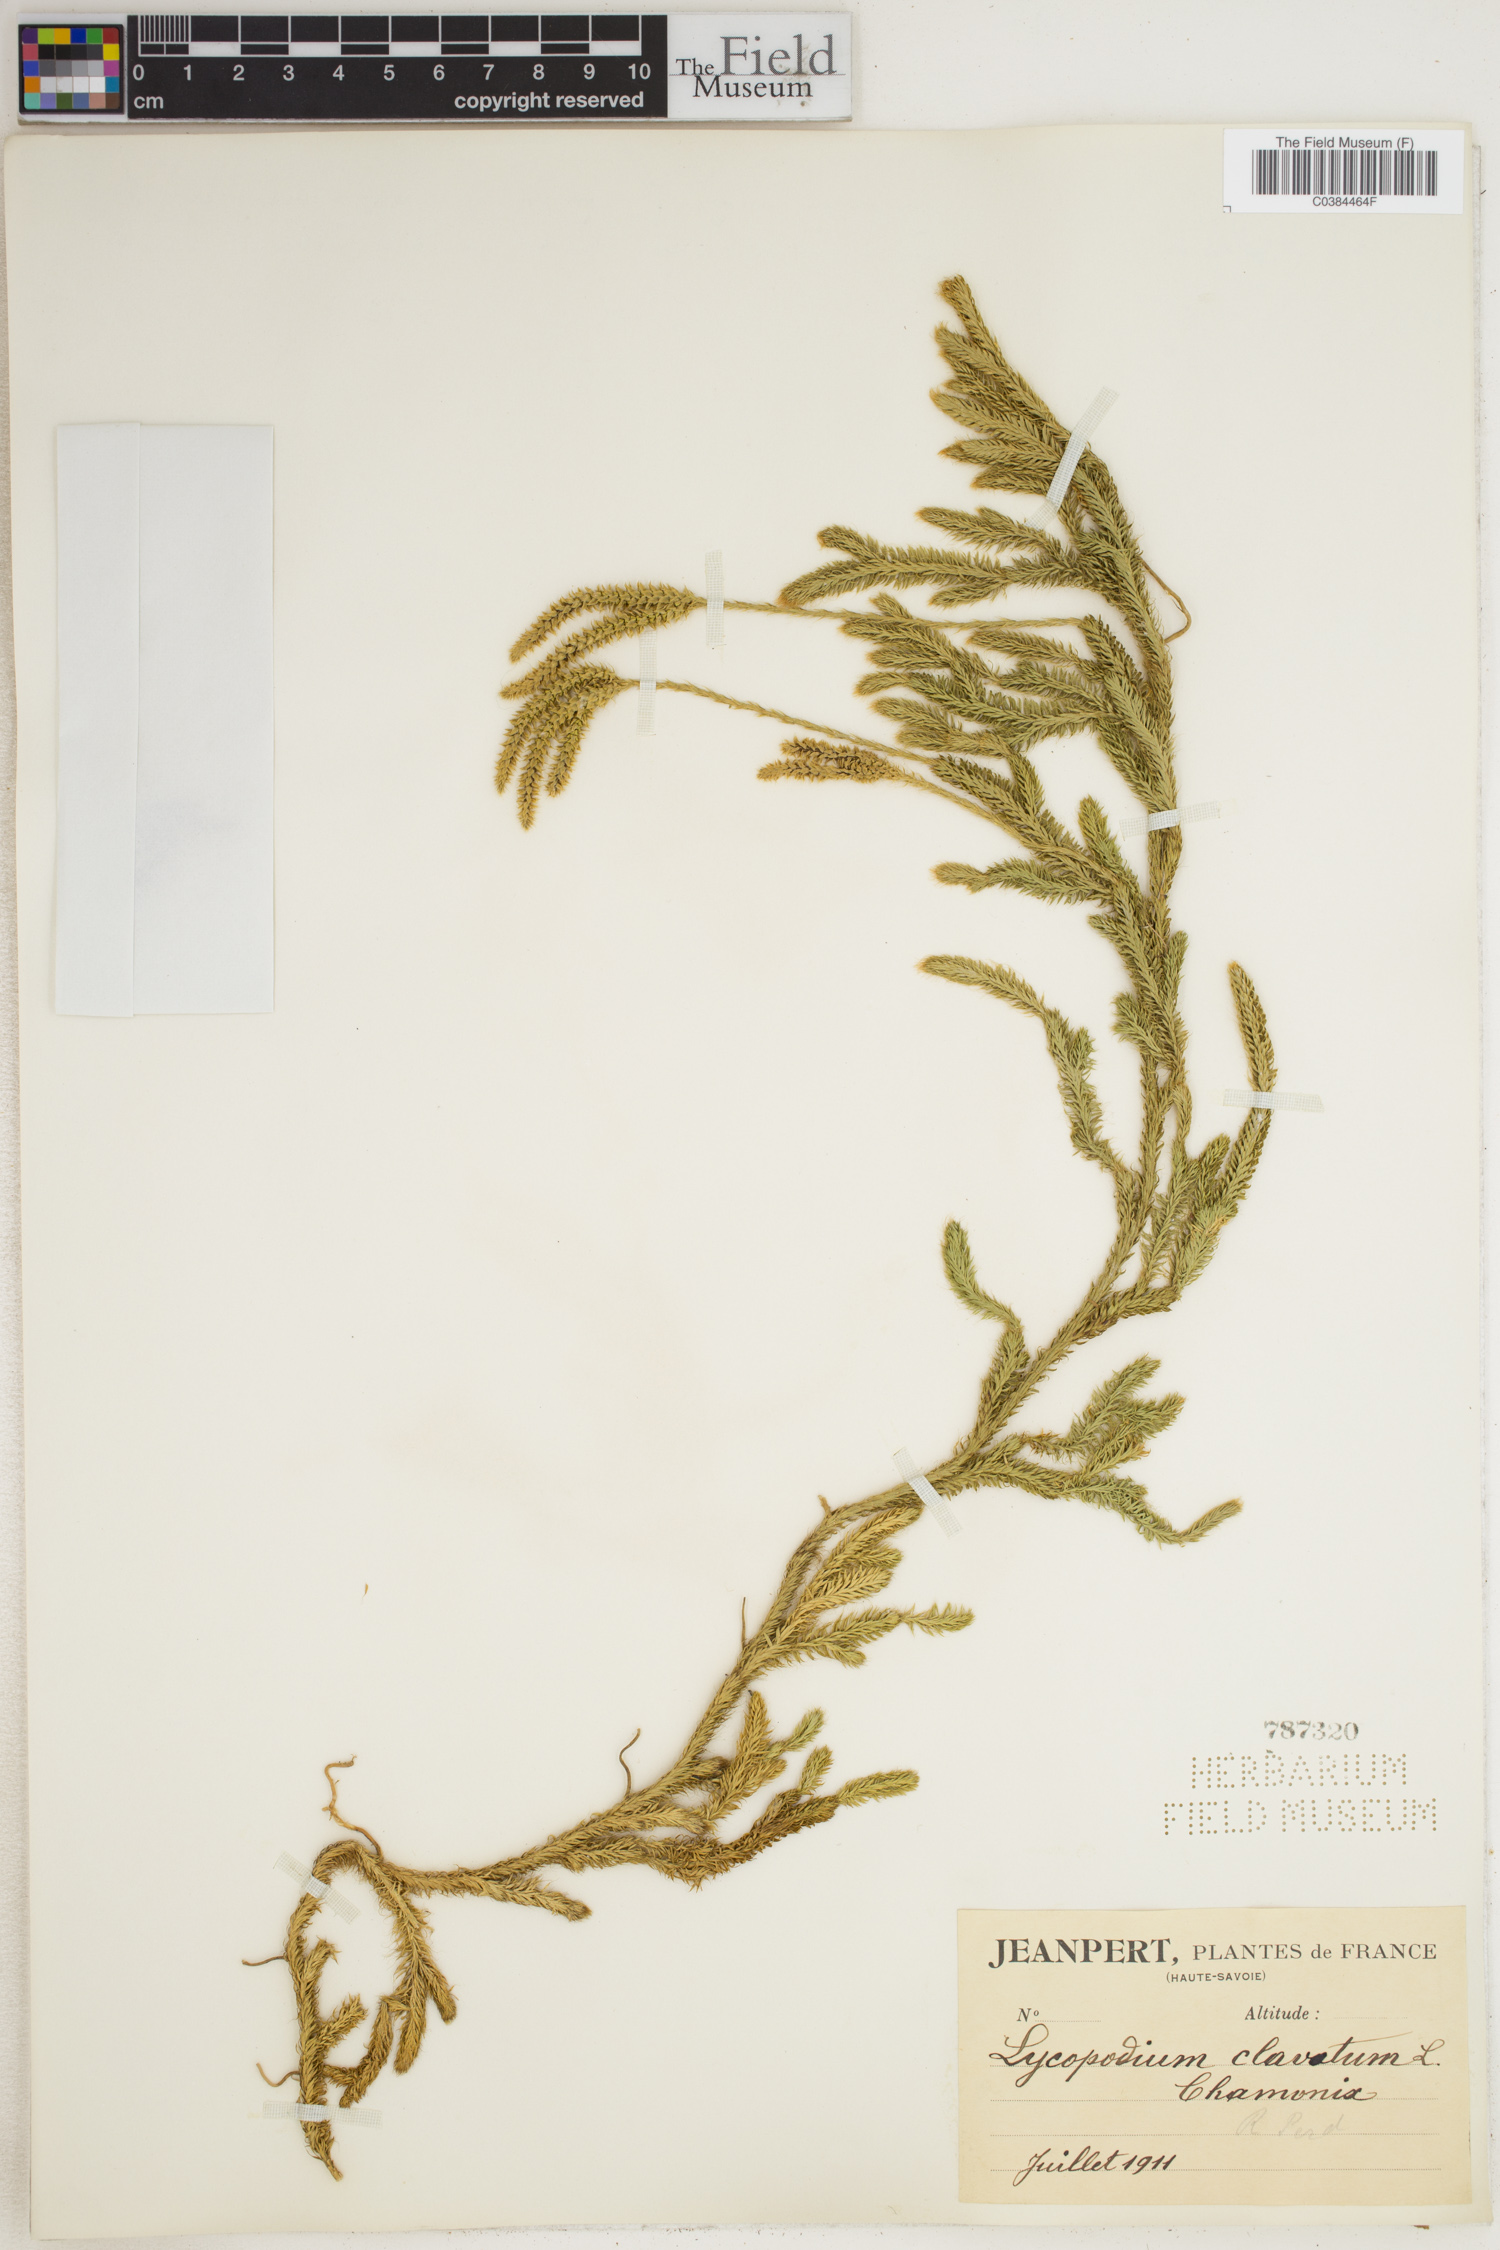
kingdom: Plantae
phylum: Tracheophyta
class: Lycopodiopsida
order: Lycopodiales
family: Lycopodiaceae
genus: Lycopodium
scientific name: Lycopodium clavatum
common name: Stag's-horn clubmoss
